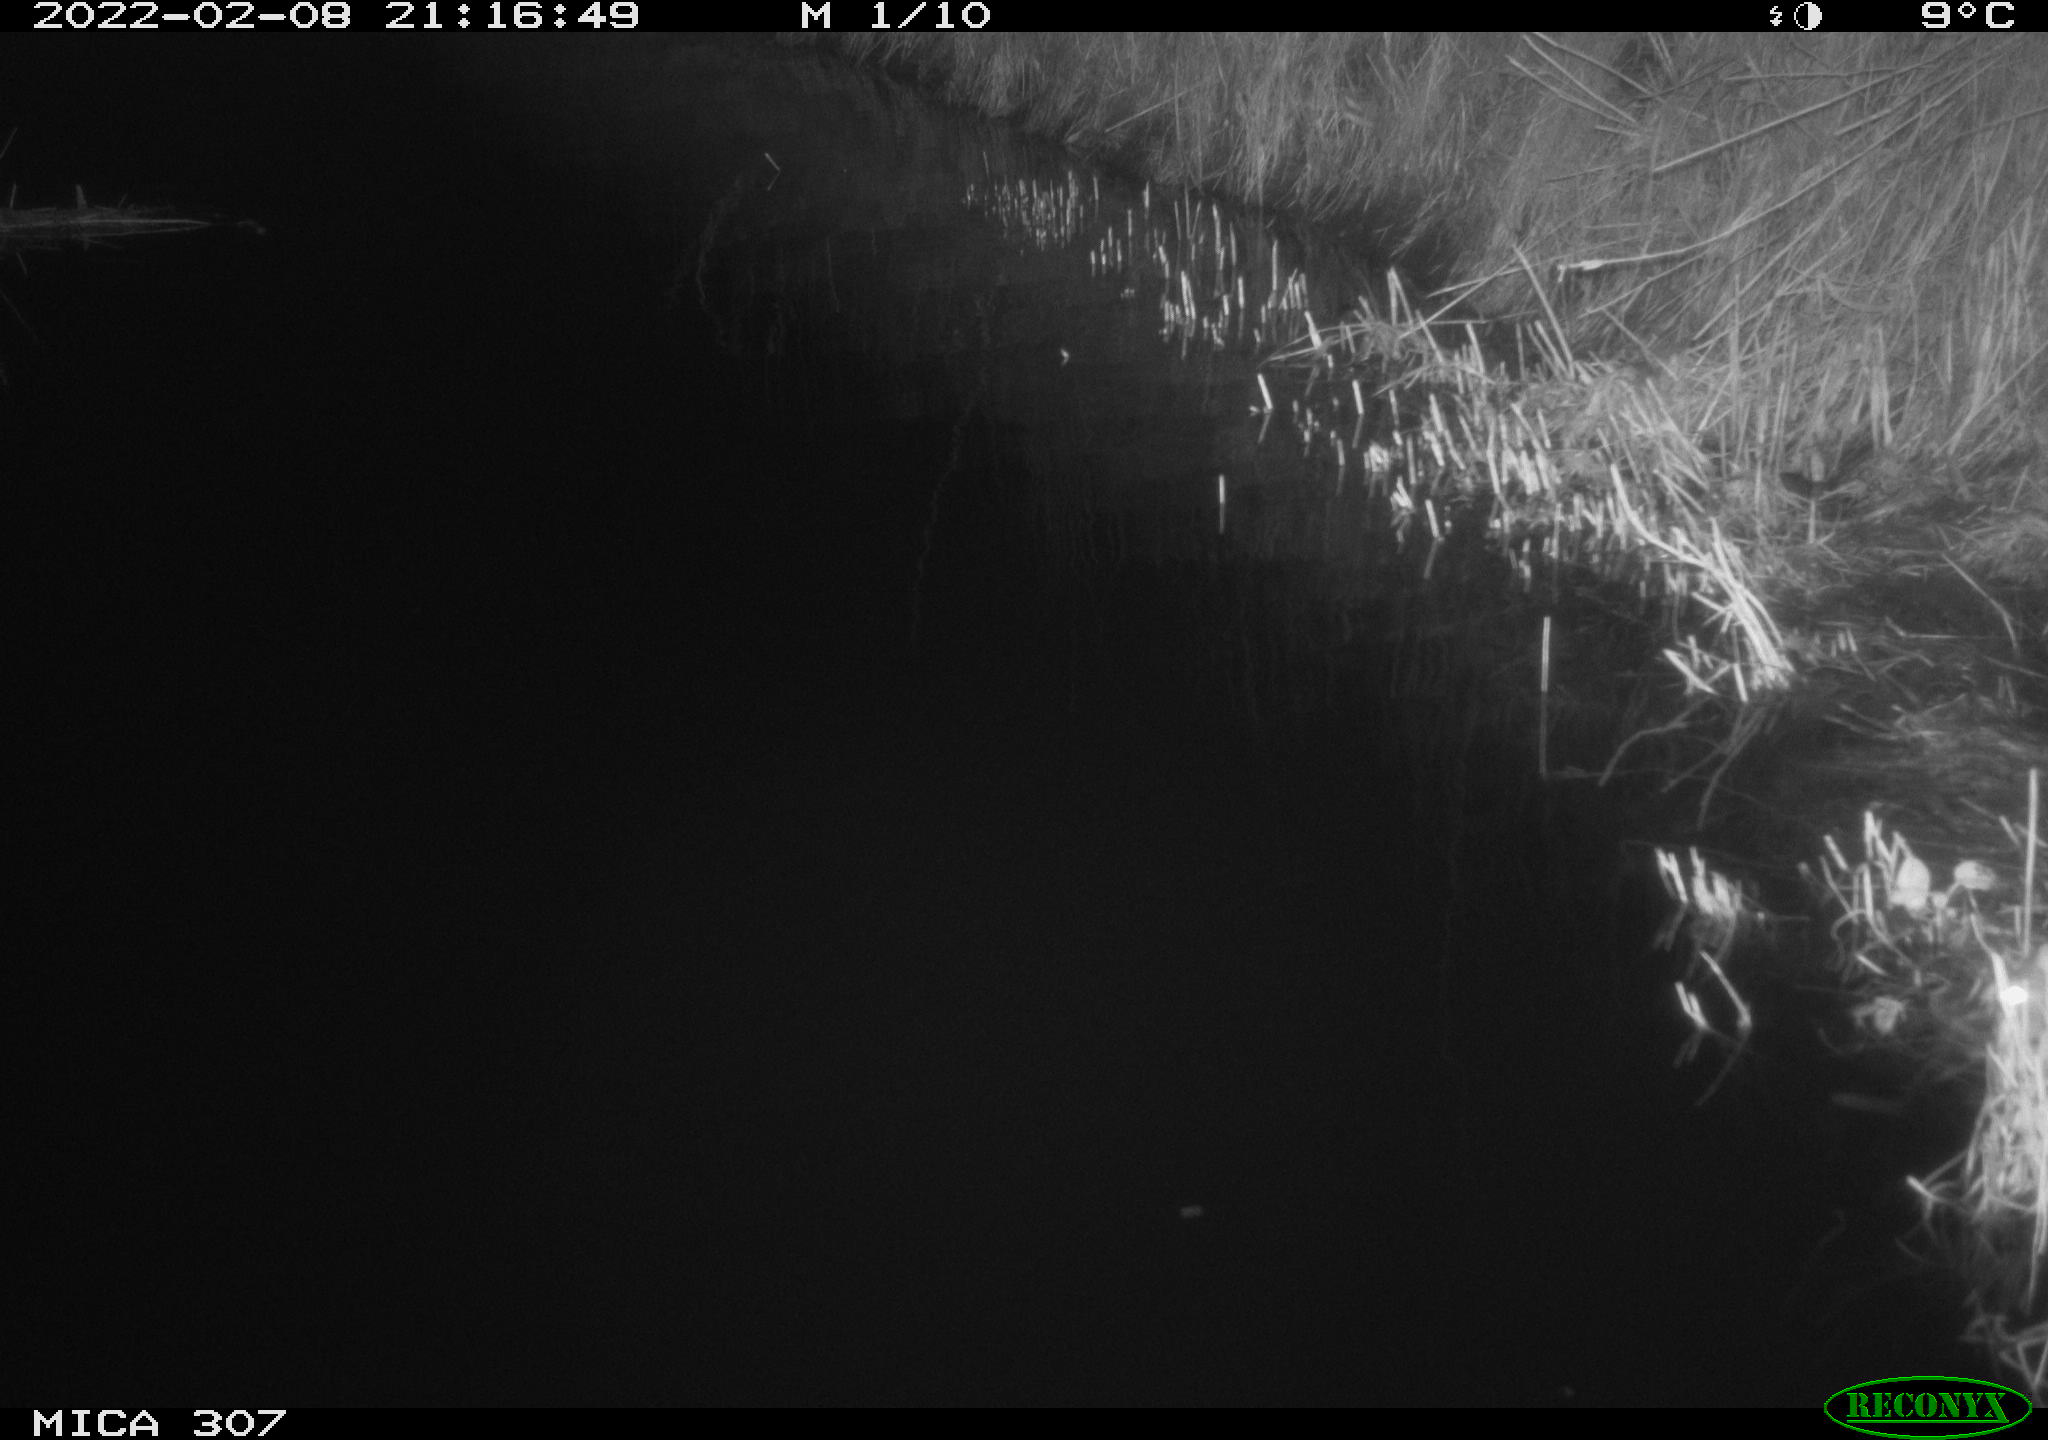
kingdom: Animalia
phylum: Chordata
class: Mammalia
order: Rodentia
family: Muridae
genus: Rattus
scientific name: Rattus norvegicus
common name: Brown rat
